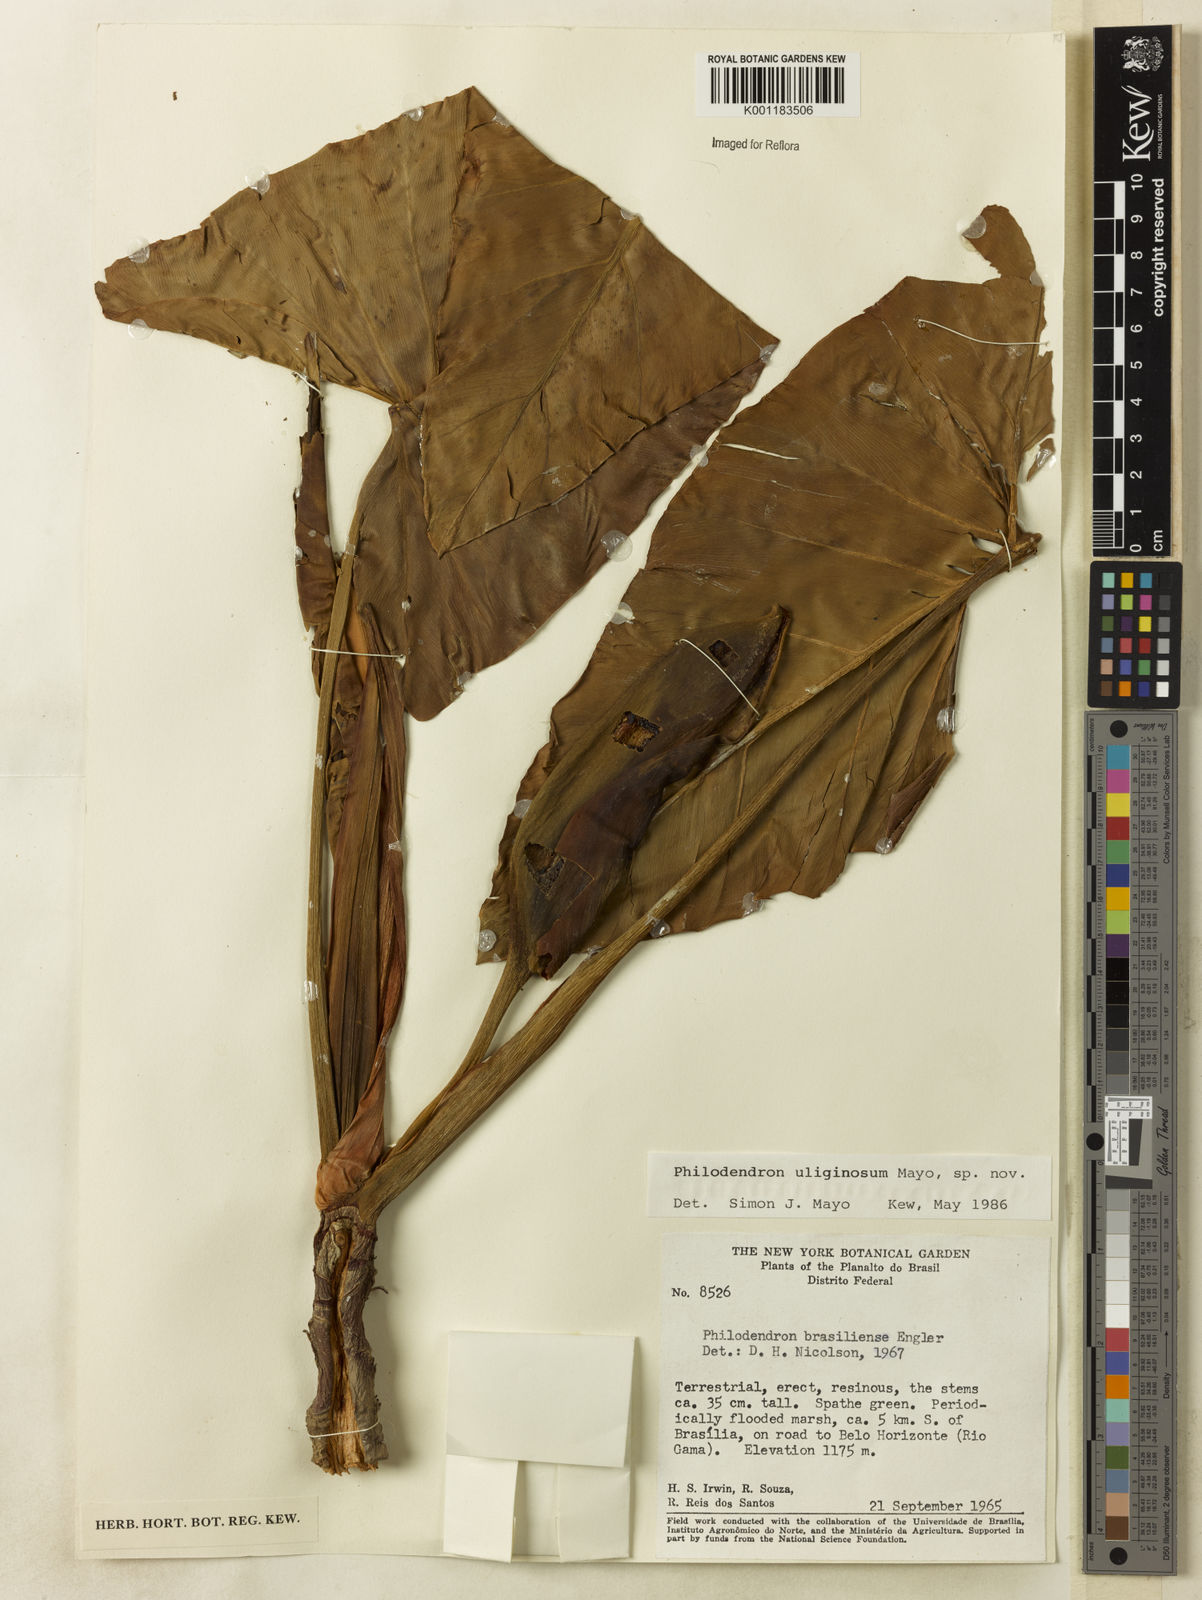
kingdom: Plantae
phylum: Tracheophyta
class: Liliopsida
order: Alismatales
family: Araceae
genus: Thaumatophyllum
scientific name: Thaumatophyllum uliginosum
